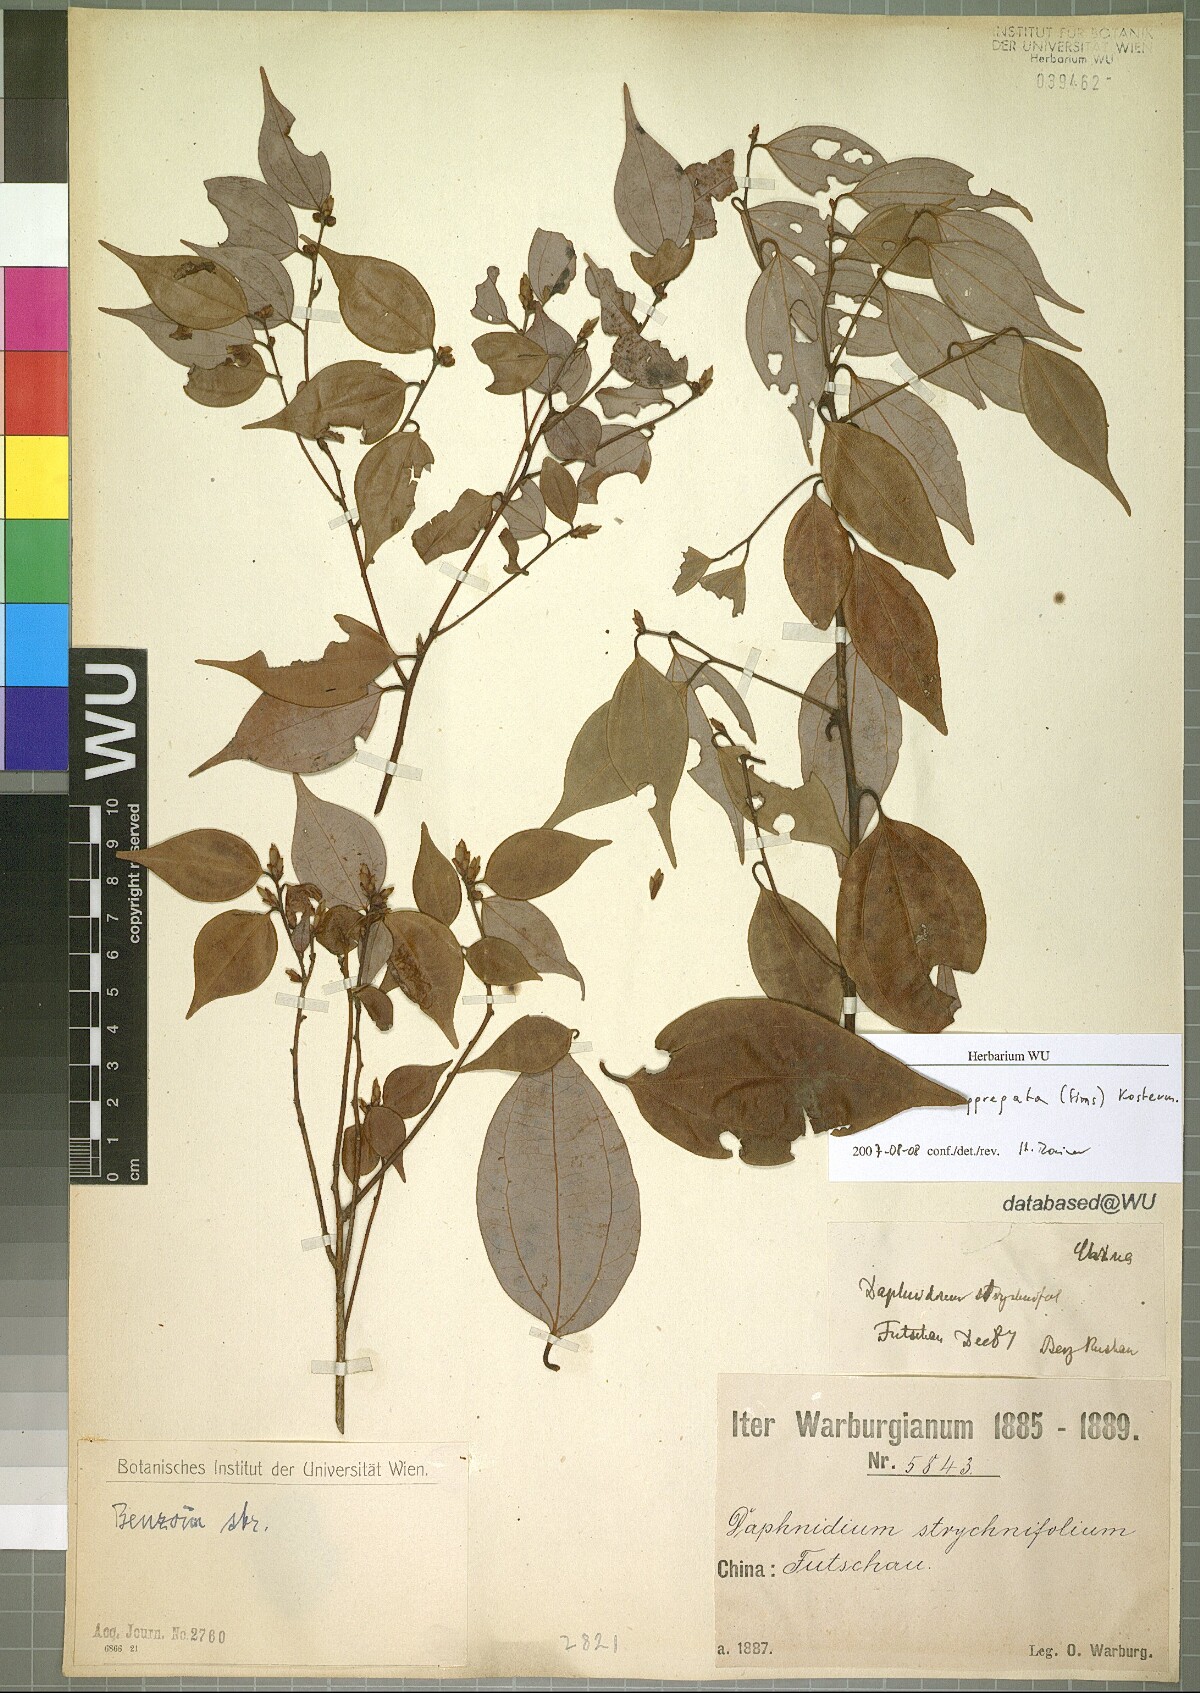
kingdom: Plantae
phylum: Tracheophyta
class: Magnoliopsida
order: Laurales
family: Lauraceae
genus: Lindera
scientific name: Lindera aggregata
